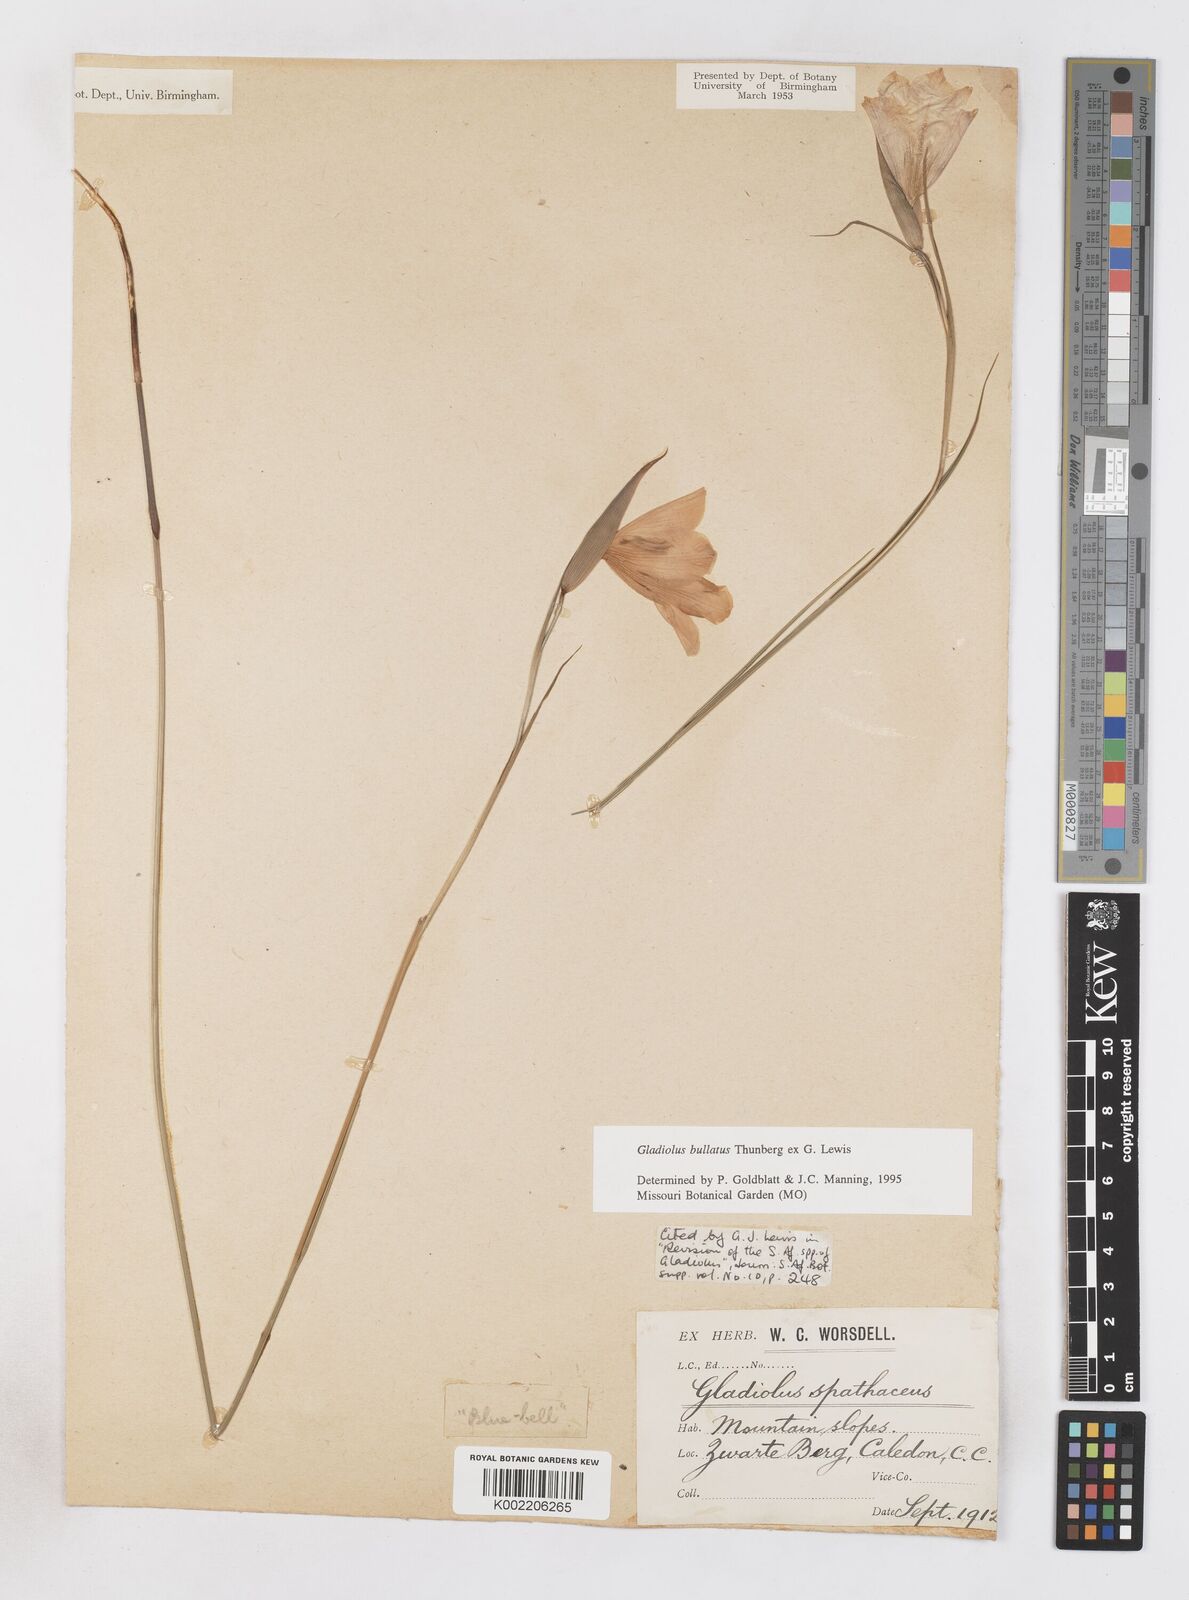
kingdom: Plantae
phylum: Tracheophyta
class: Liliopsida
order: Asparagales
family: Iridaceae
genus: Gladiolus
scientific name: Gladiolus bullatus
